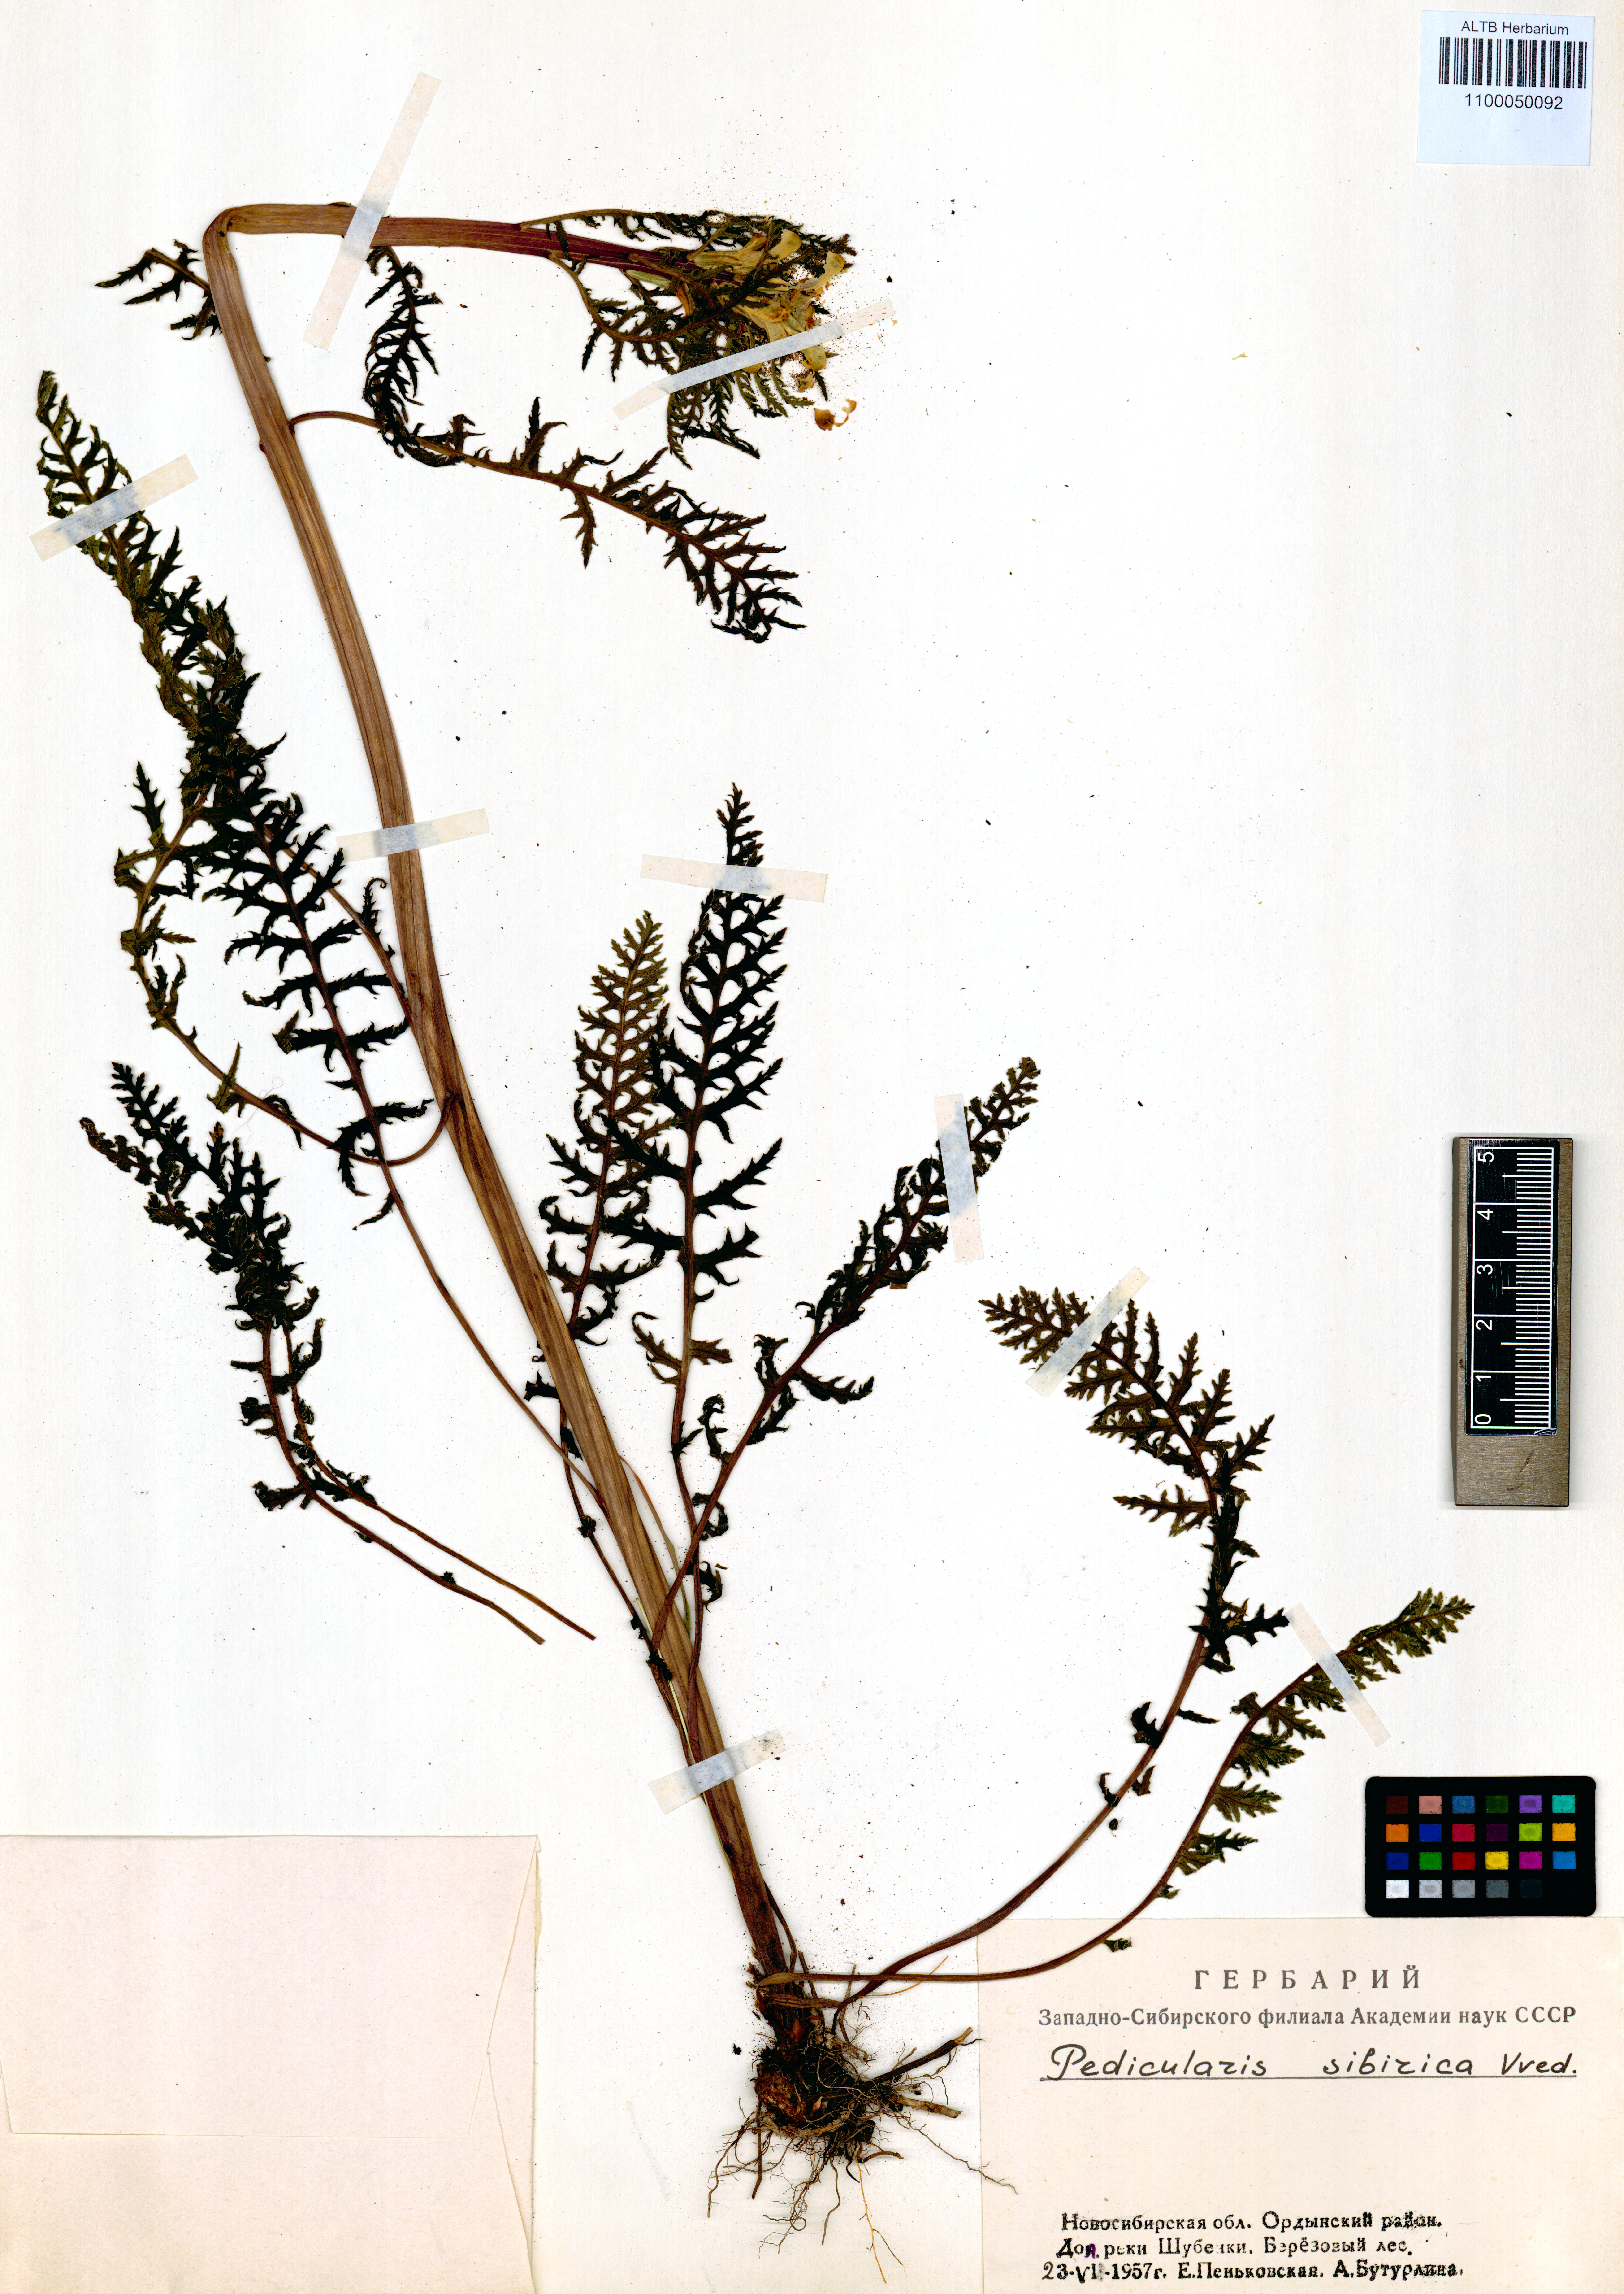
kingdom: Plantae
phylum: Tracheophyta
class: Magnoliopsida
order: Lamiales
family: Orobanchaceae
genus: Pedicularis
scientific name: Pedicularis sibirica
